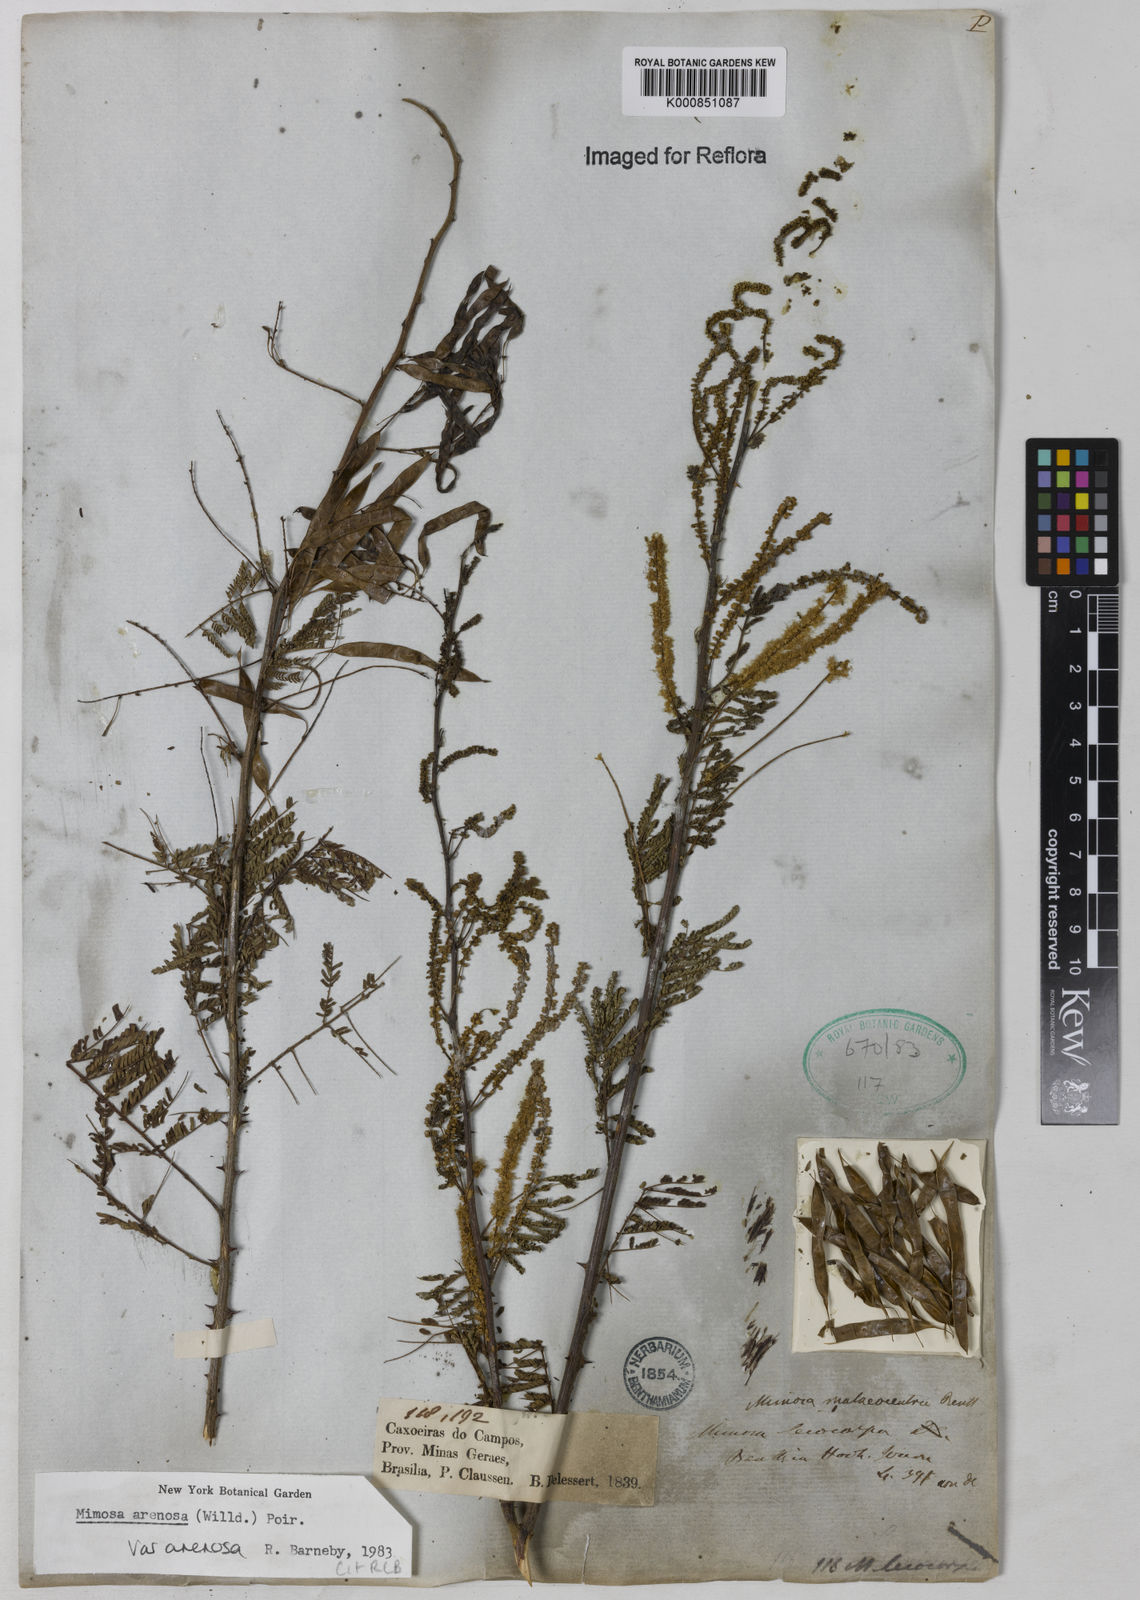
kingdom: Plantae
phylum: Tracheophyta
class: Magnoliopsida
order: Fabales
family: Fabaceae
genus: Mimosa
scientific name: Mimosa arenosa
